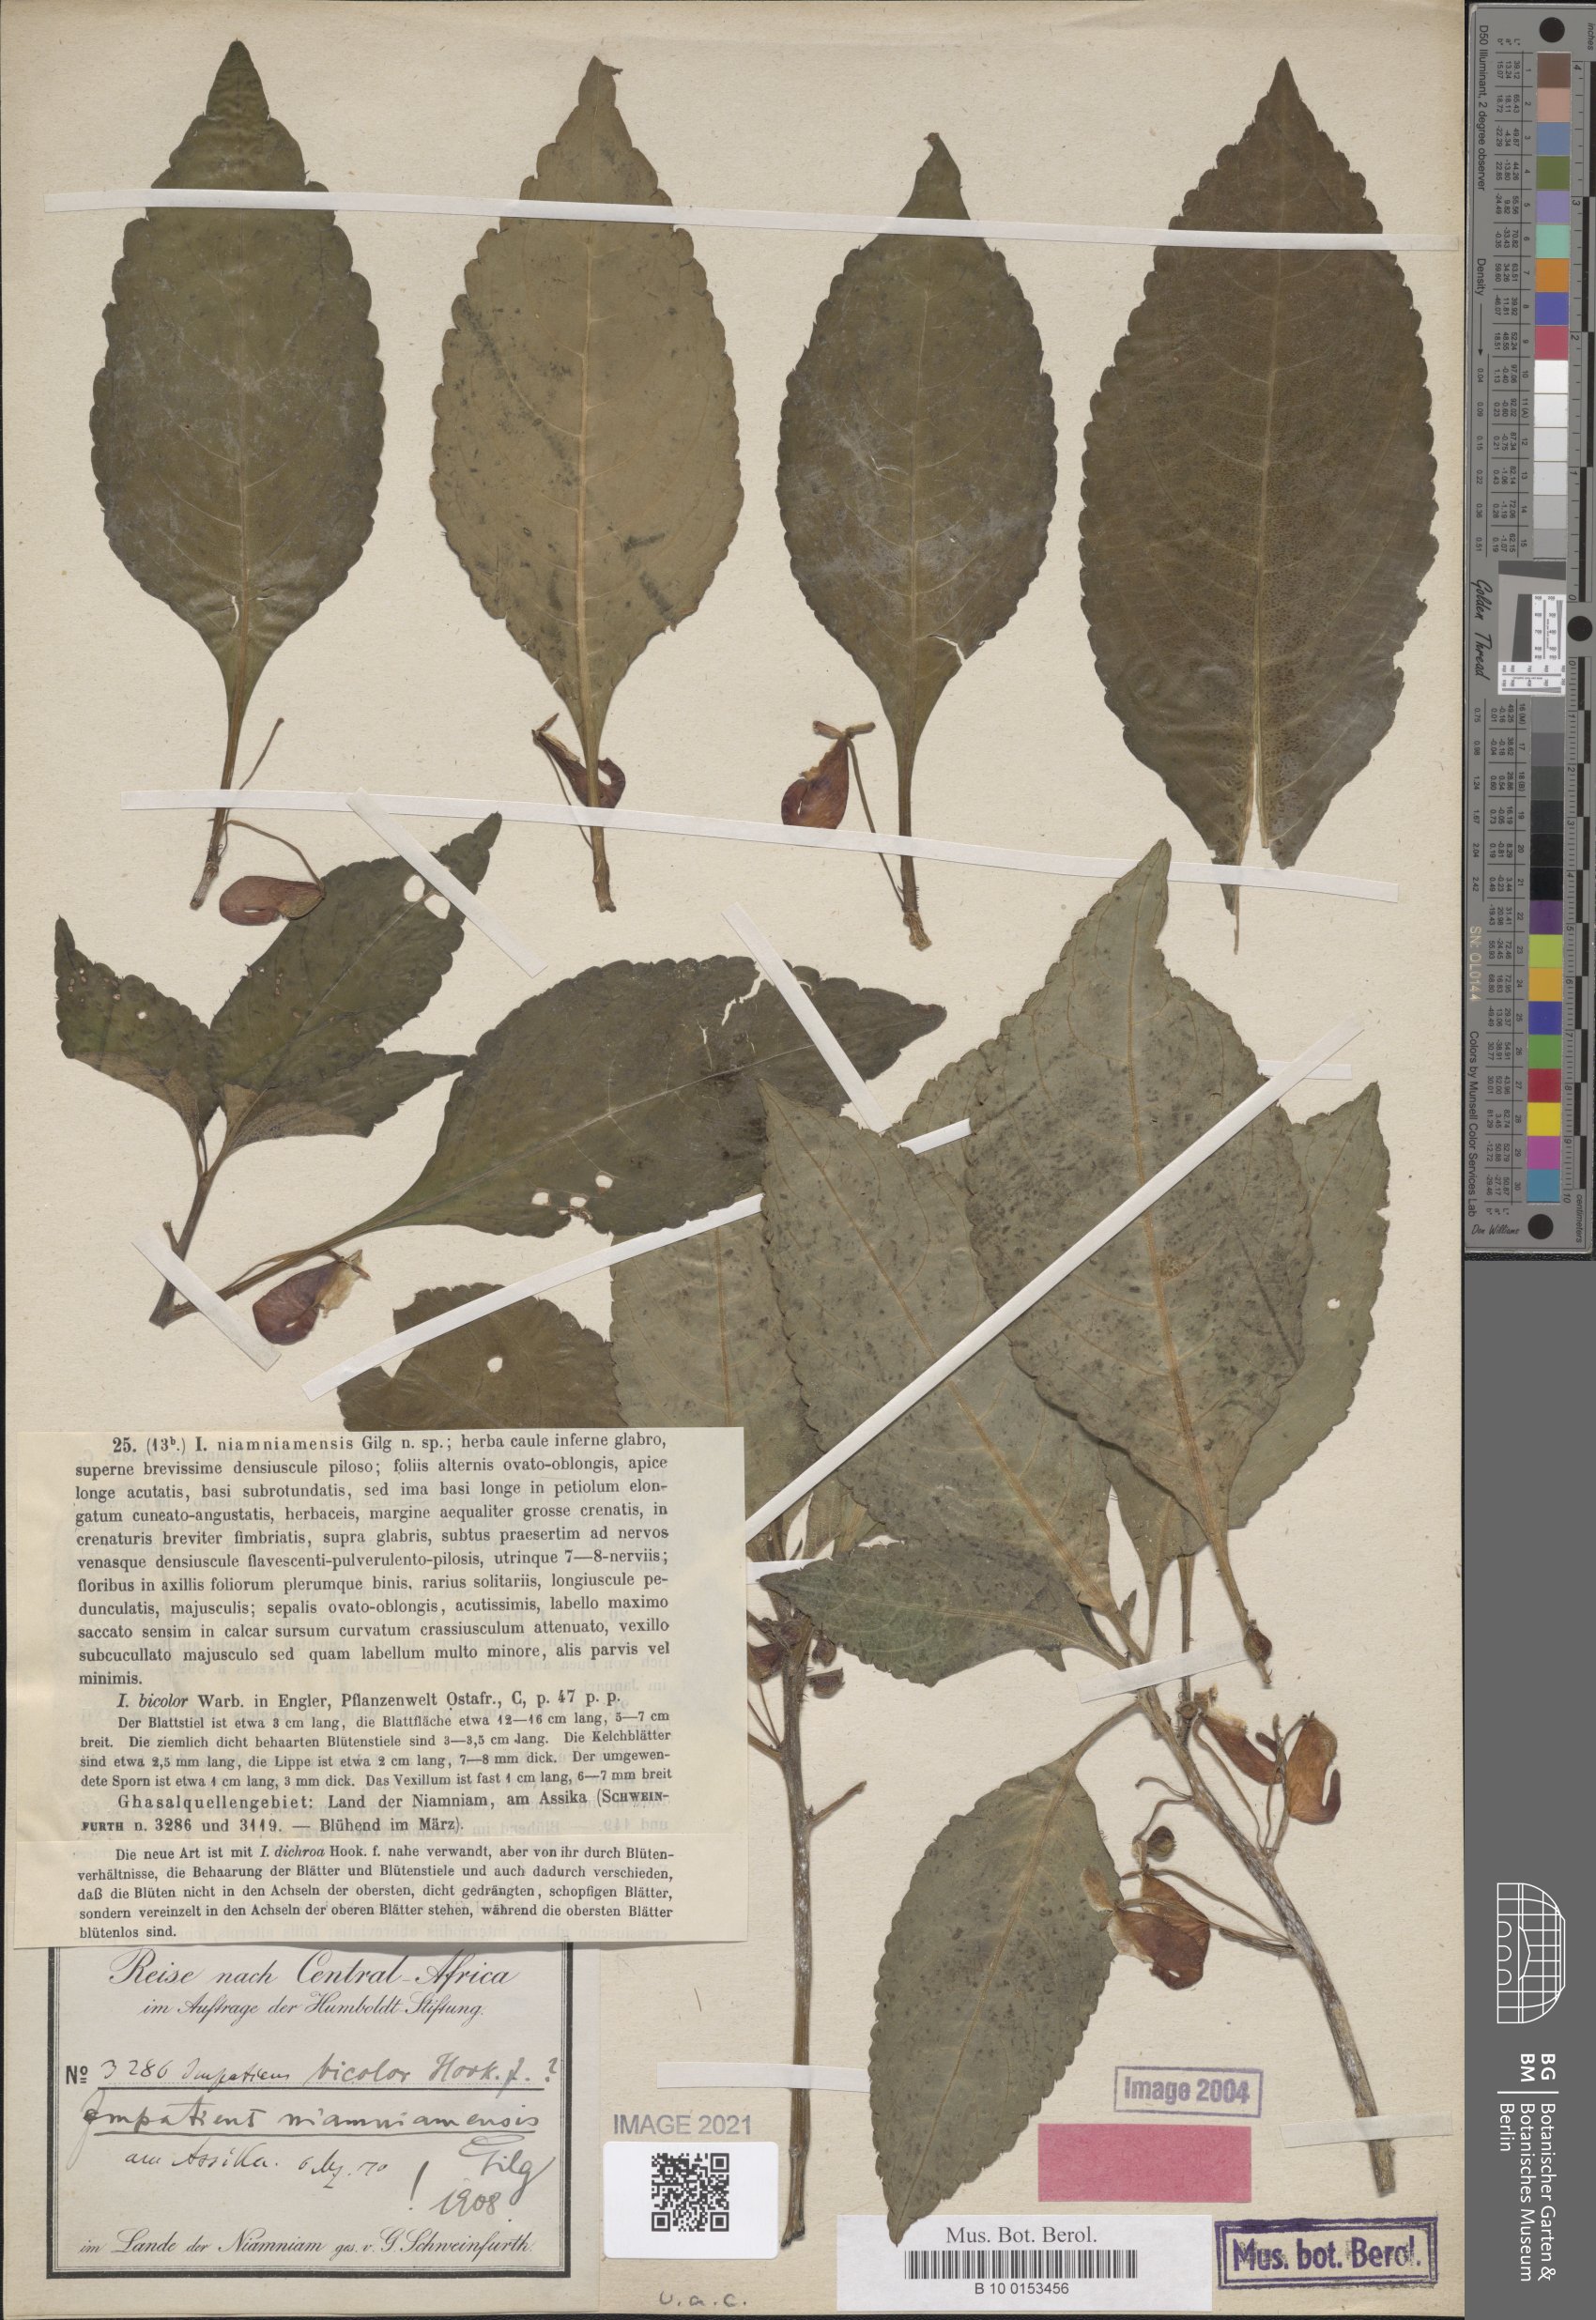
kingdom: Plantae
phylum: Tracheophyta
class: Magnoliopsida
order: Ericales
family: Balsaminaceae
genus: Impatiens
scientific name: Impatiens niamniamensis
